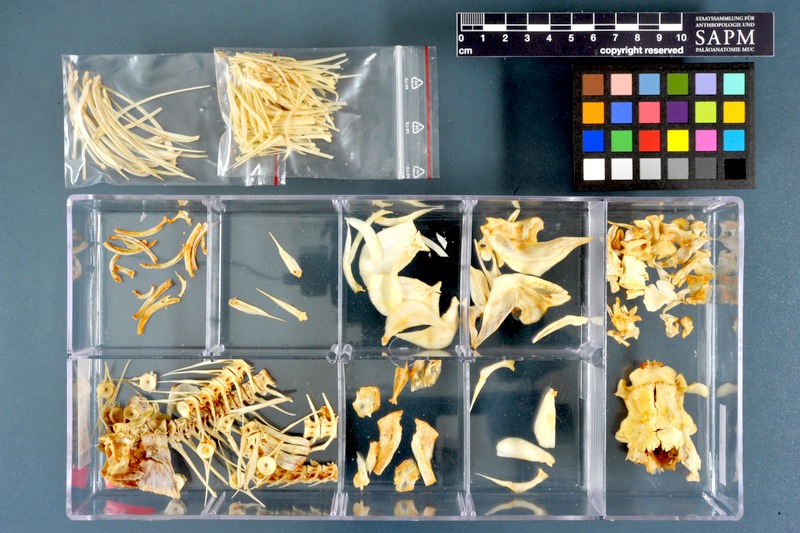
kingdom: Animalia
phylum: Chordata
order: Cypriniformes
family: Cyprinidae
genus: Labeo
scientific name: Labeo niloticus
